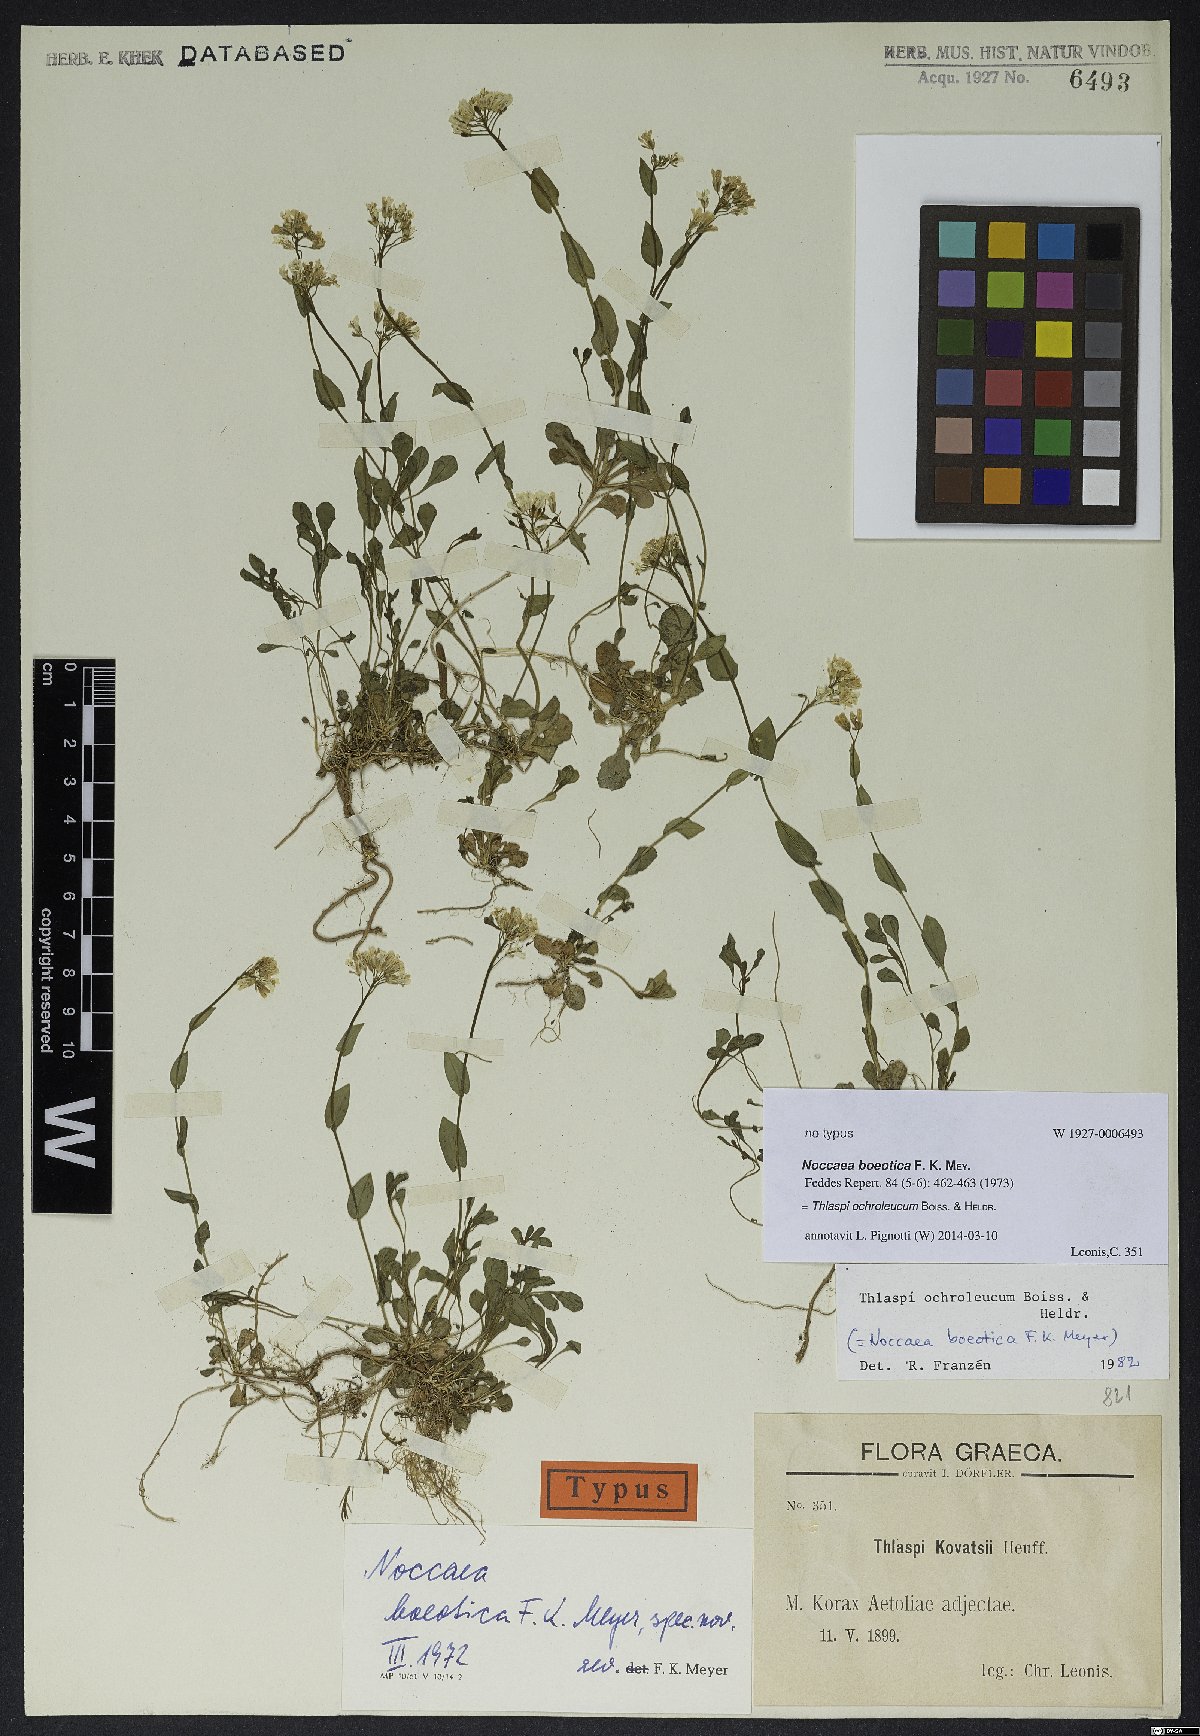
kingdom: Plantae
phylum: Tracheophyta
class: Magnoliopsida
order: Brassicales
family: Brassicaceae
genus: Noccaea
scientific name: Noccaea ochroleuca
